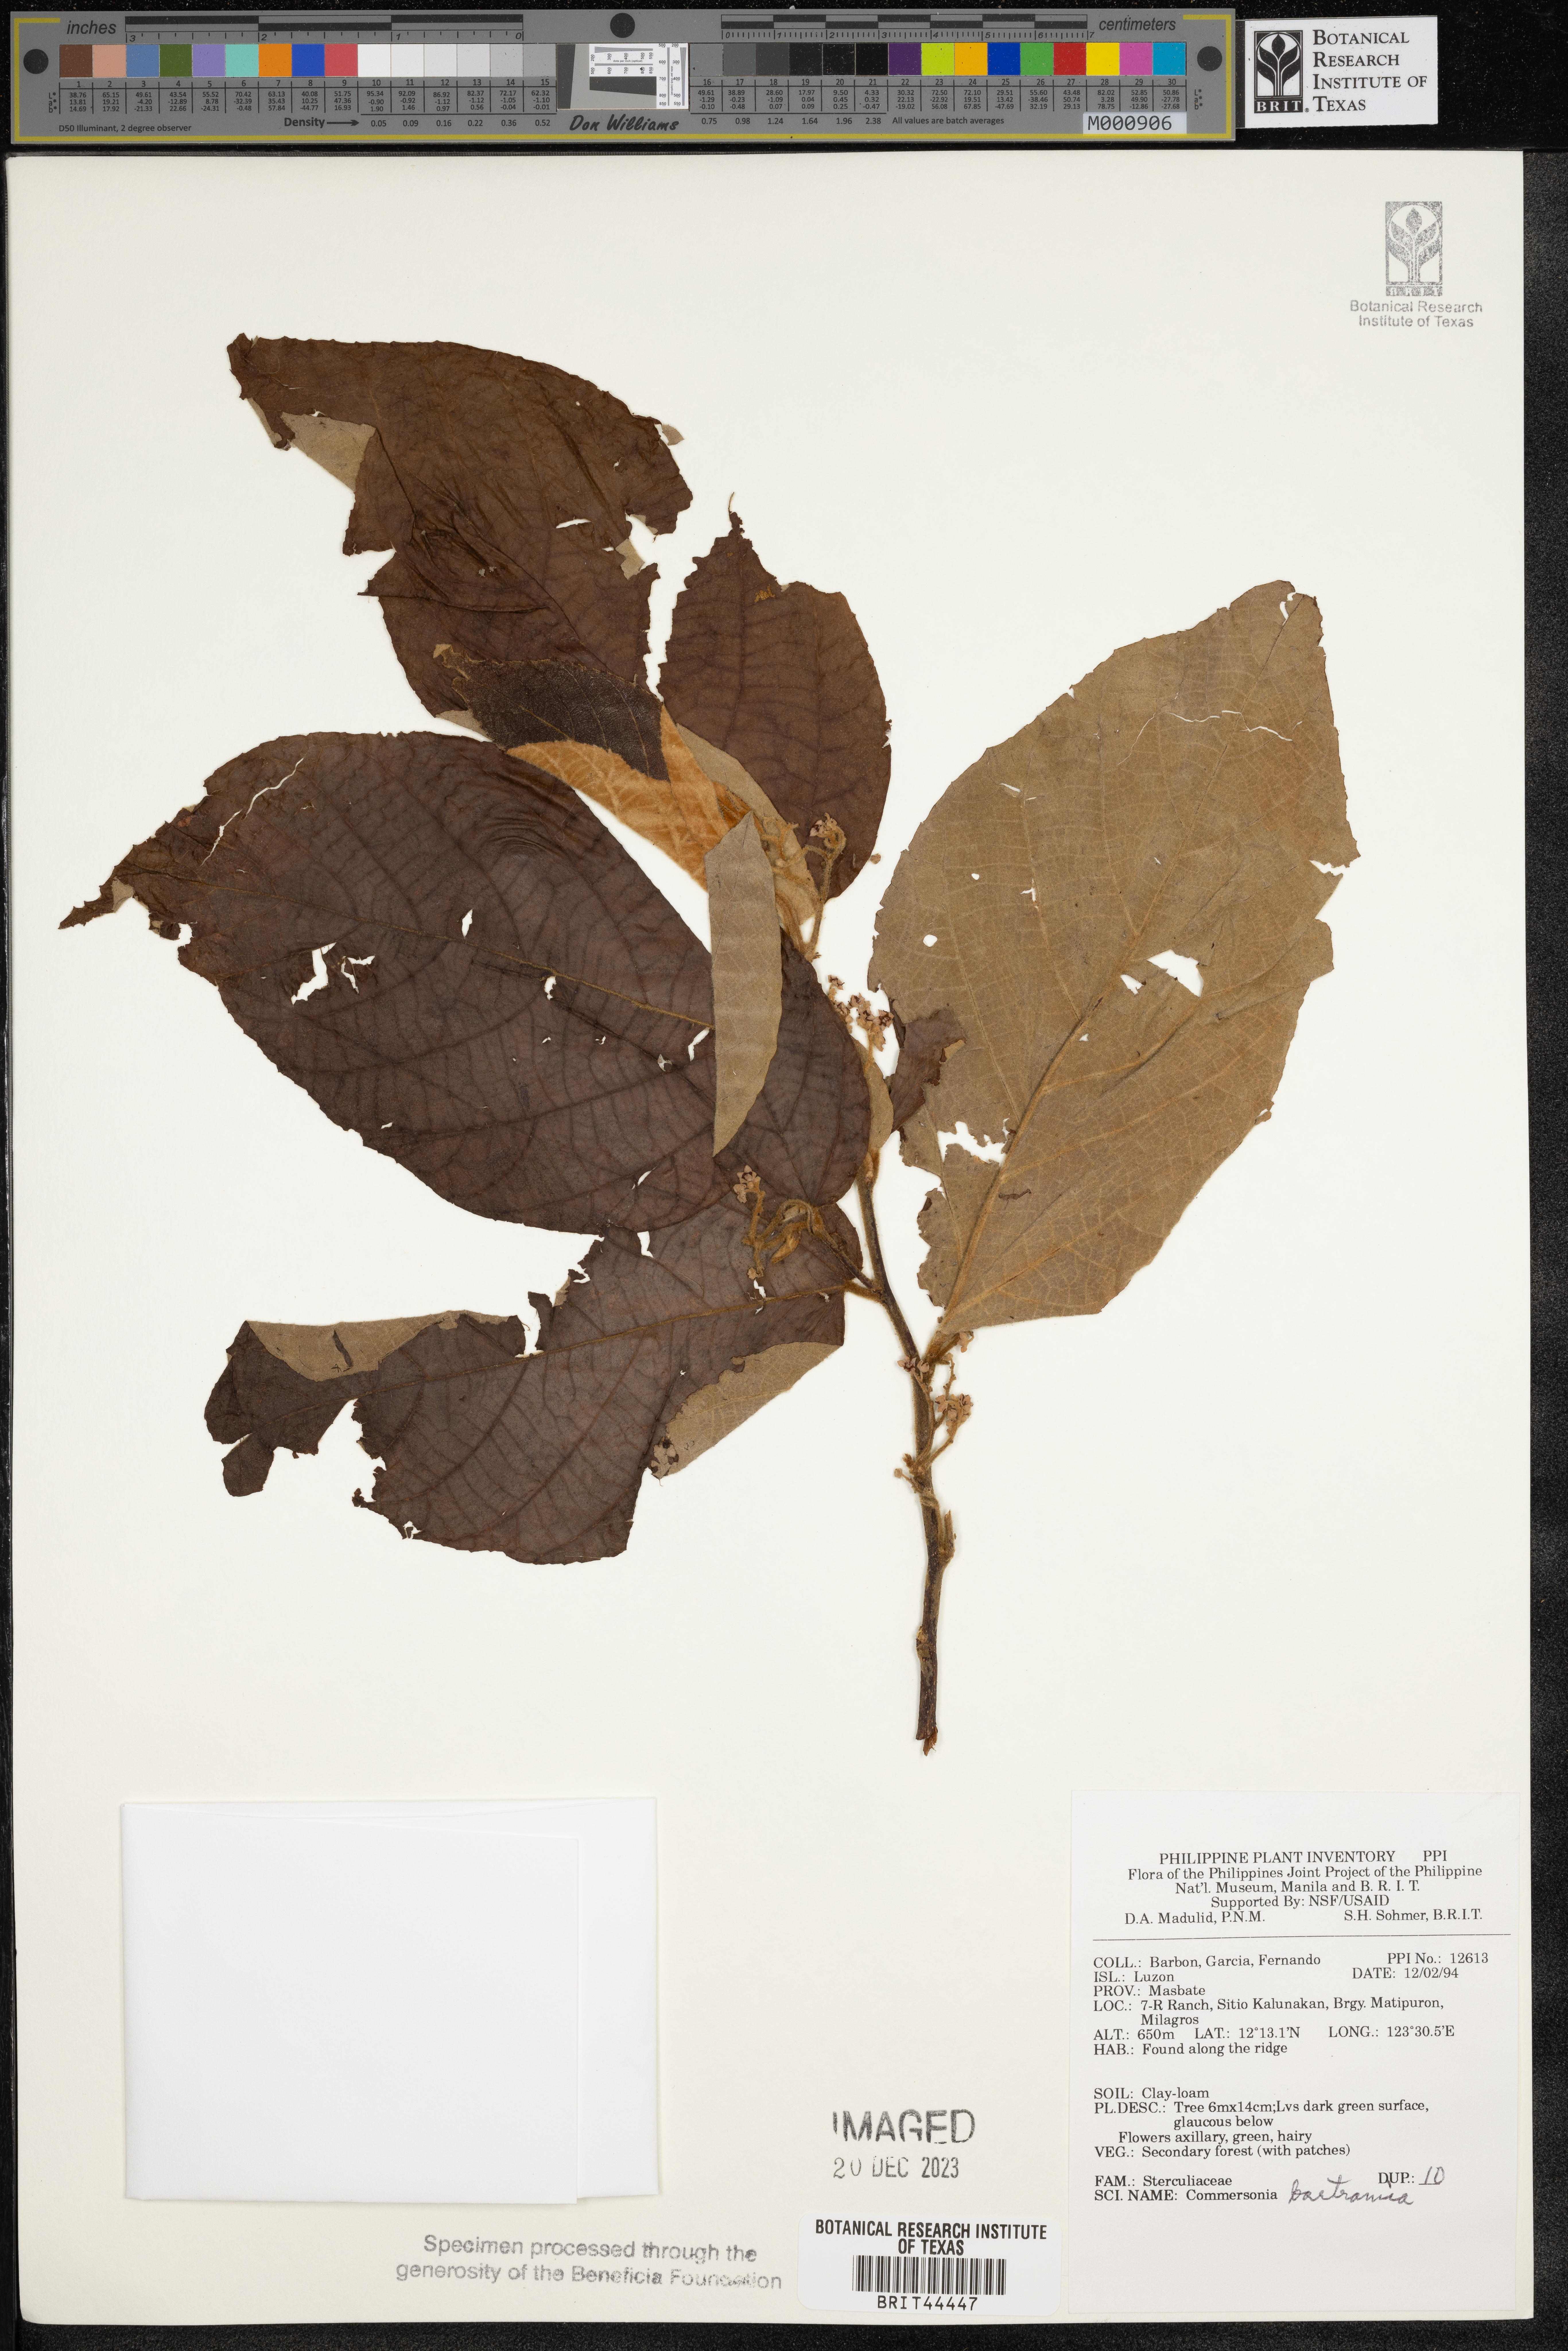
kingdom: Plantae
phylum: Tracheophyta
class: Magnoliopsida
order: Malvales
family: Malvaceae
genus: Commersonia
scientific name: Commersonia bartramia
